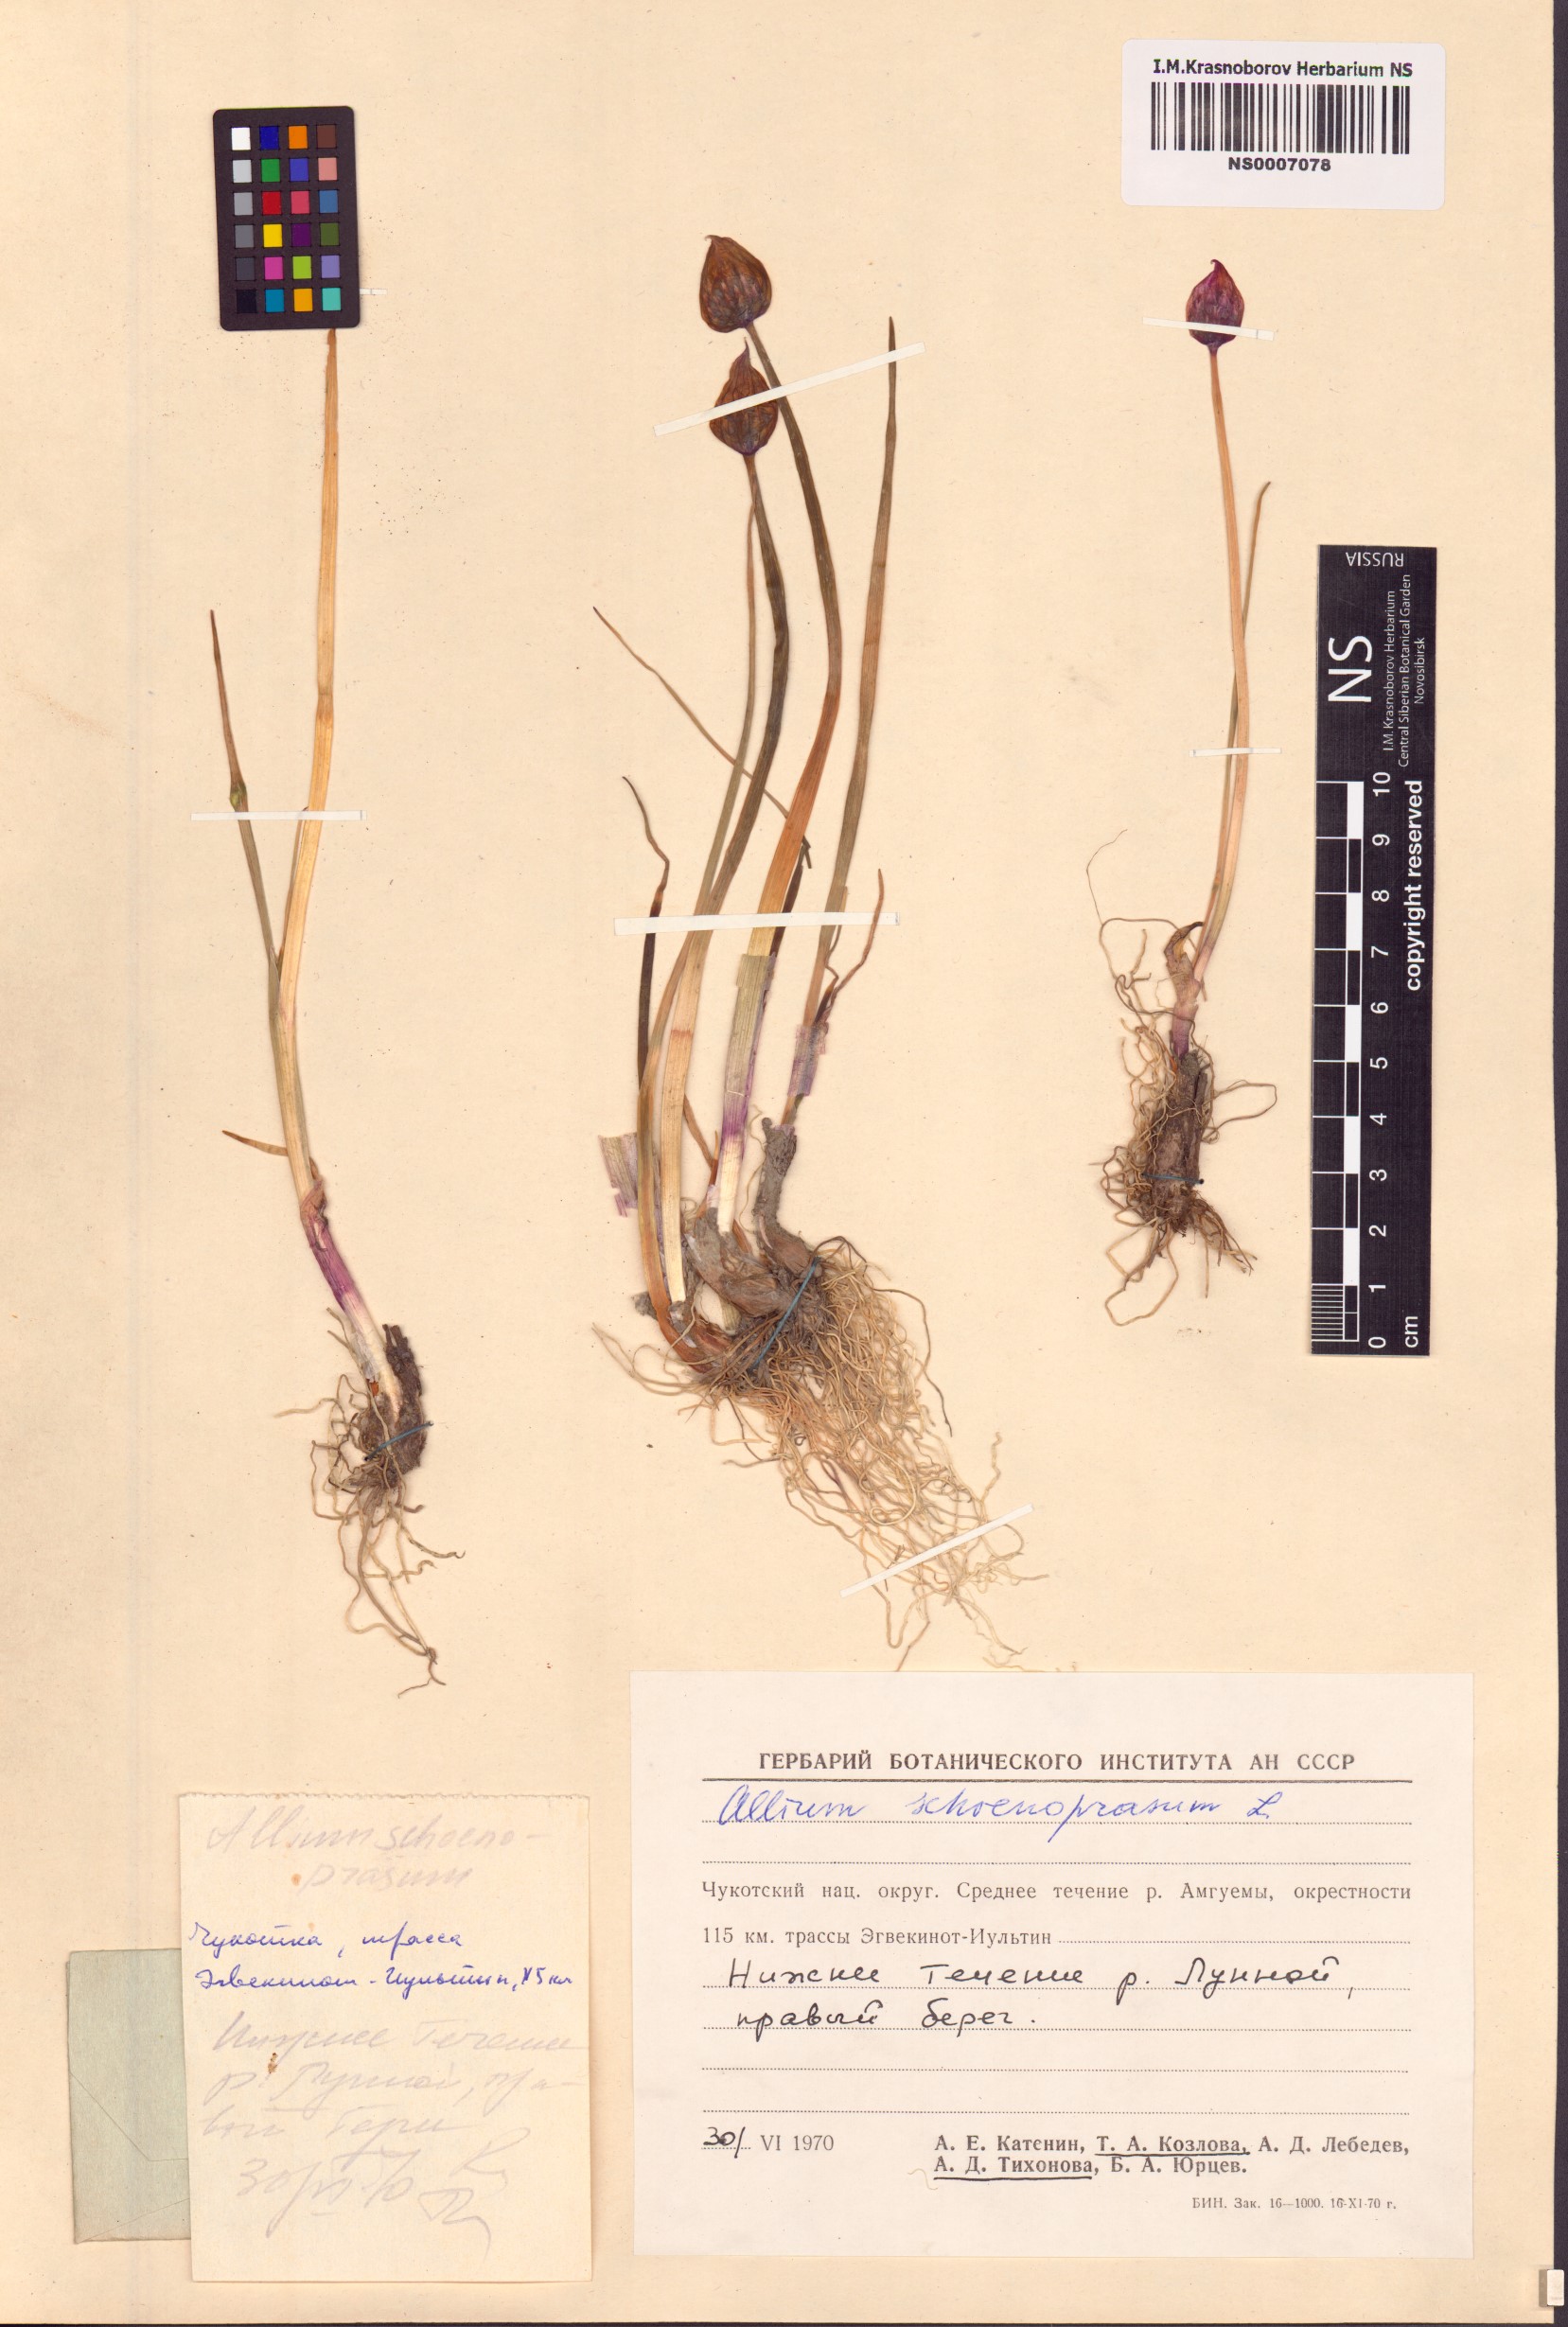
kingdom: Plantae
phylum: Tracheophyta
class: Liliopsida
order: Asparagales
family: Amaryllidaceae
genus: Allium
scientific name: Allium schoenoprasum
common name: Chives
